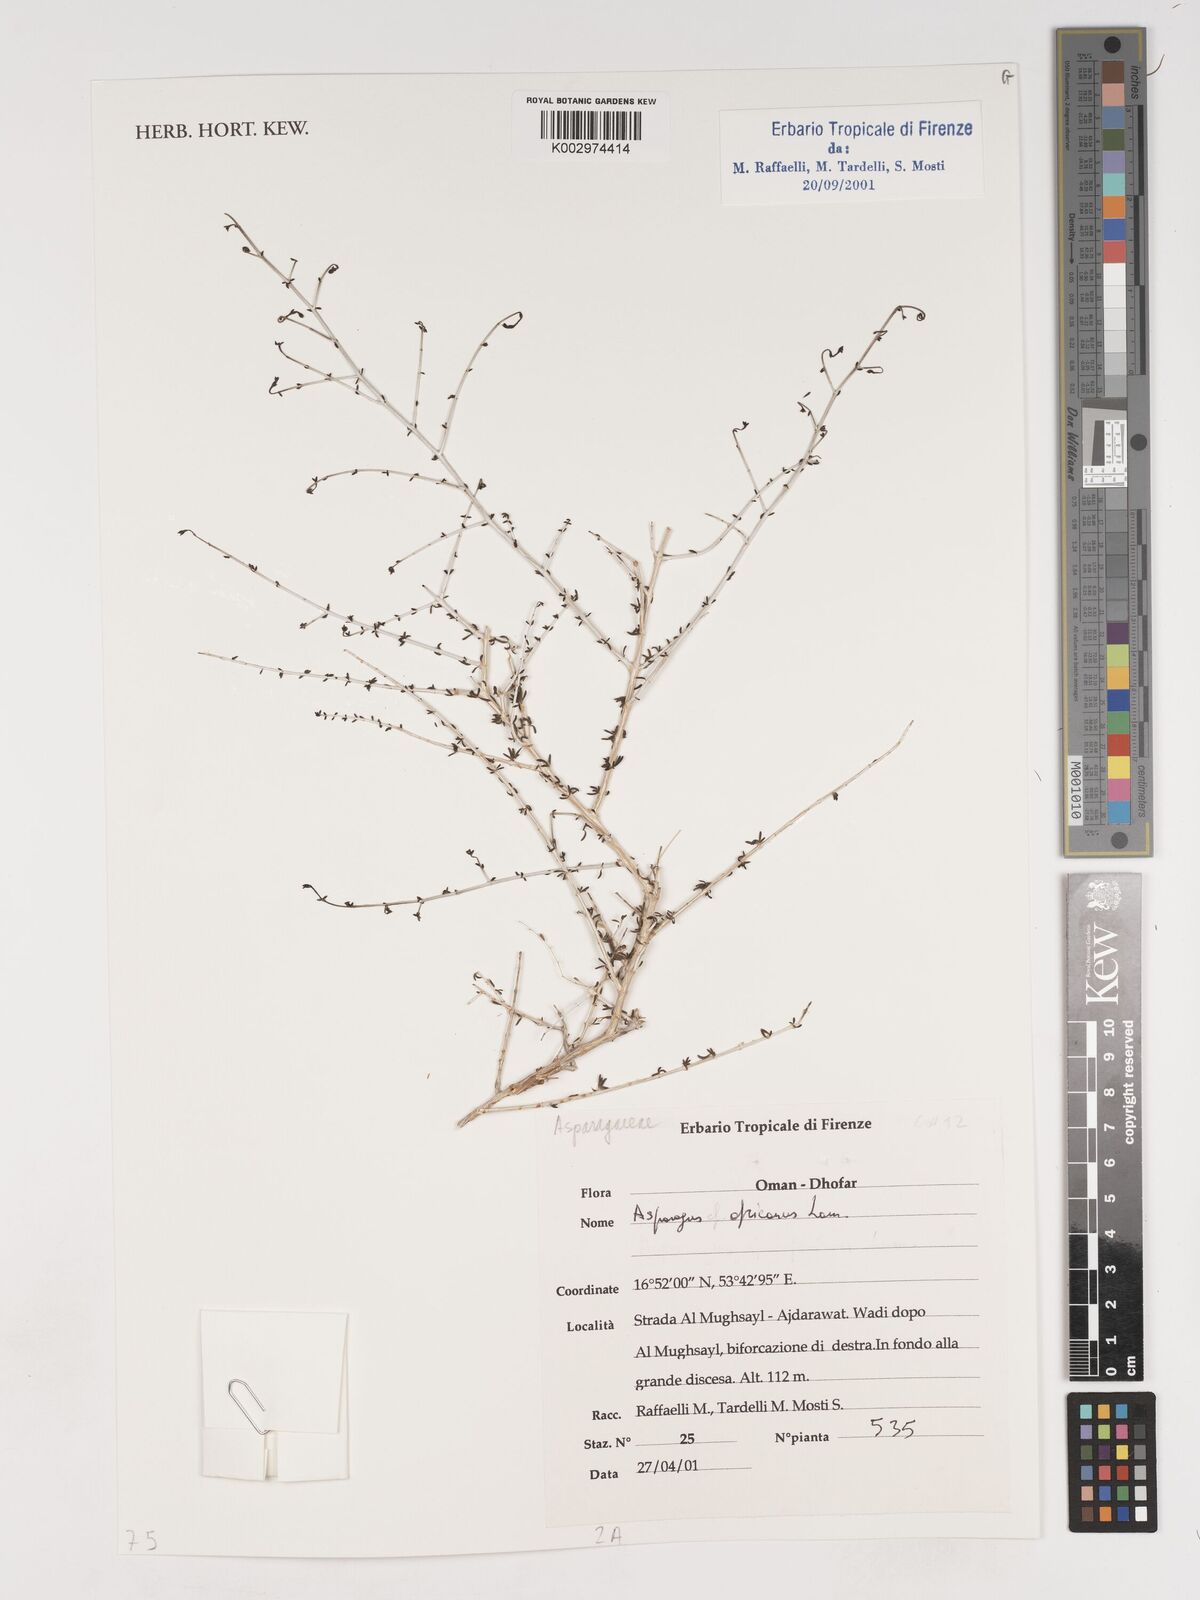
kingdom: Plantae
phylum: Tracheophyta
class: Liliopsida
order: Asparagales
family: Asparagaceae
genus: Asparagus
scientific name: Asparagus africanus
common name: Asparagus-fern
